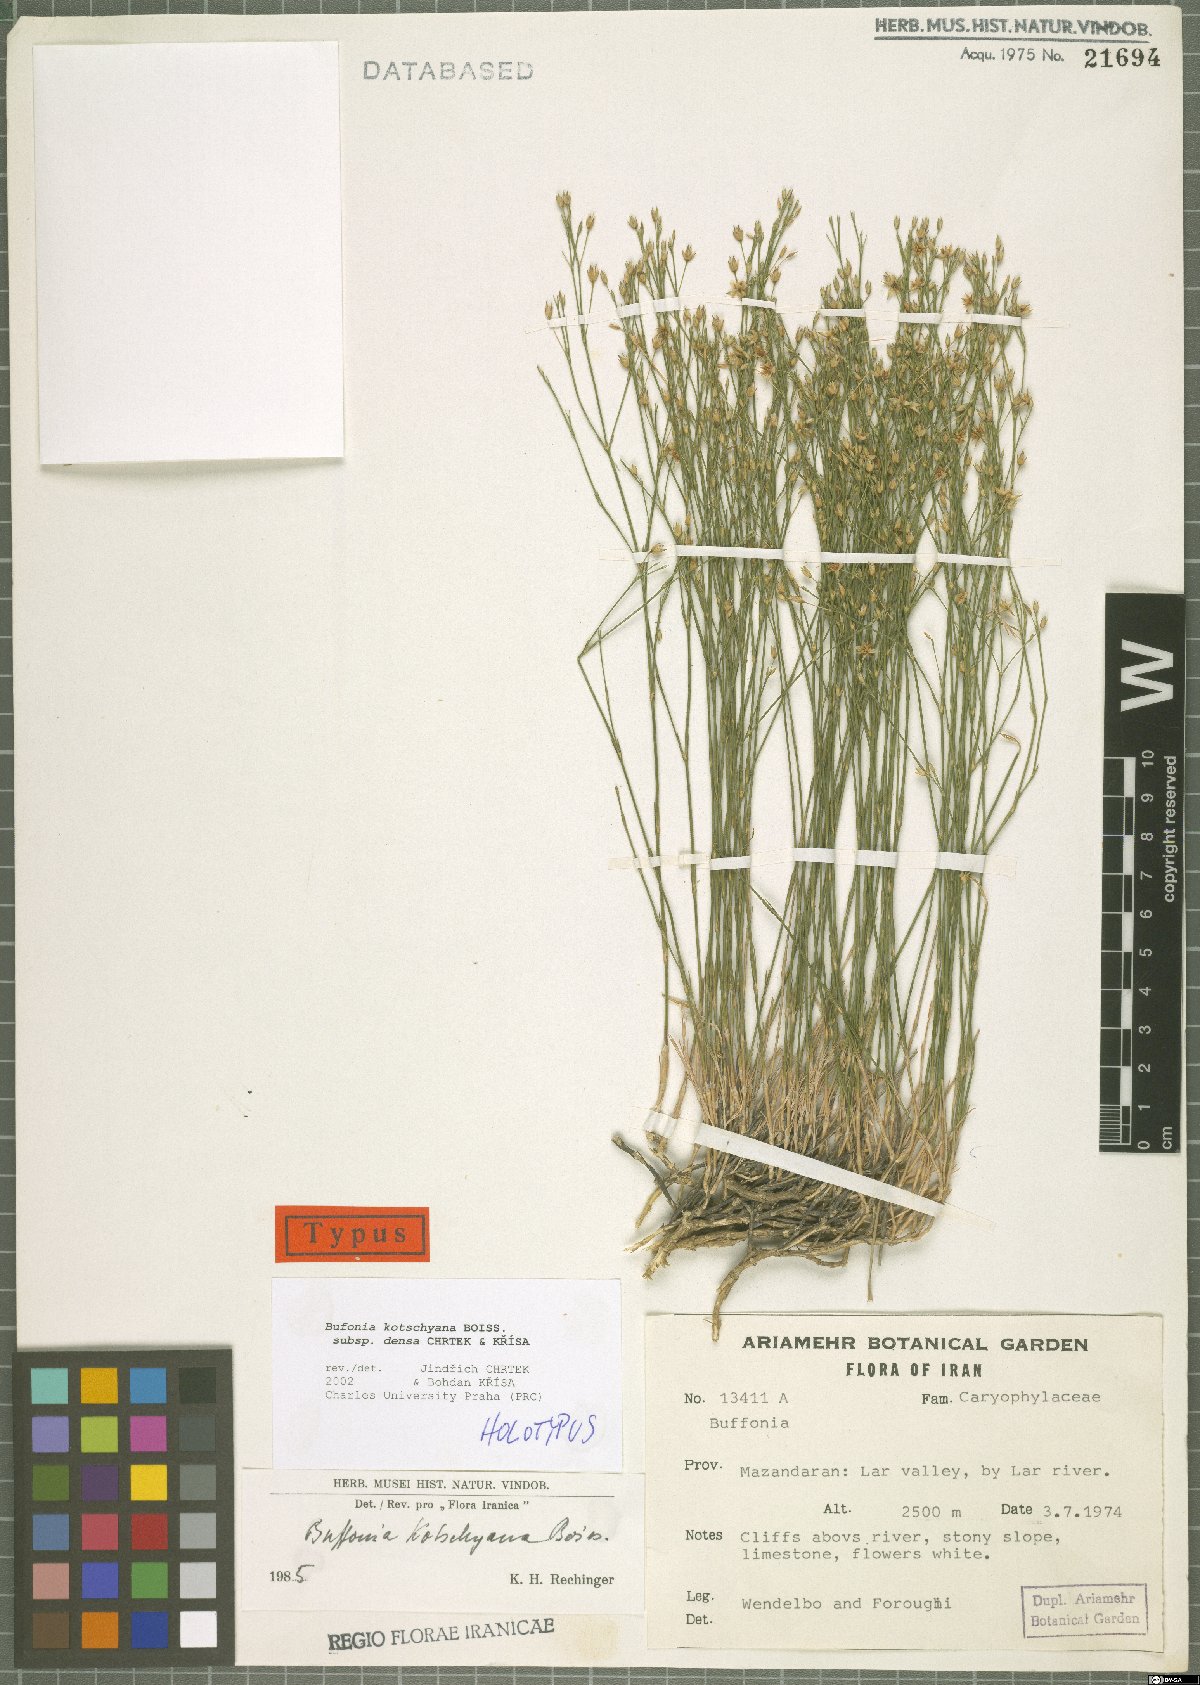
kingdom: Plantae
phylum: Tracheophyta
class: Magnoliopsida
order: Caryophyllales
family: Caryophyllaceae
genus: Bufonia
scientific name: Bufonia kotschyana
